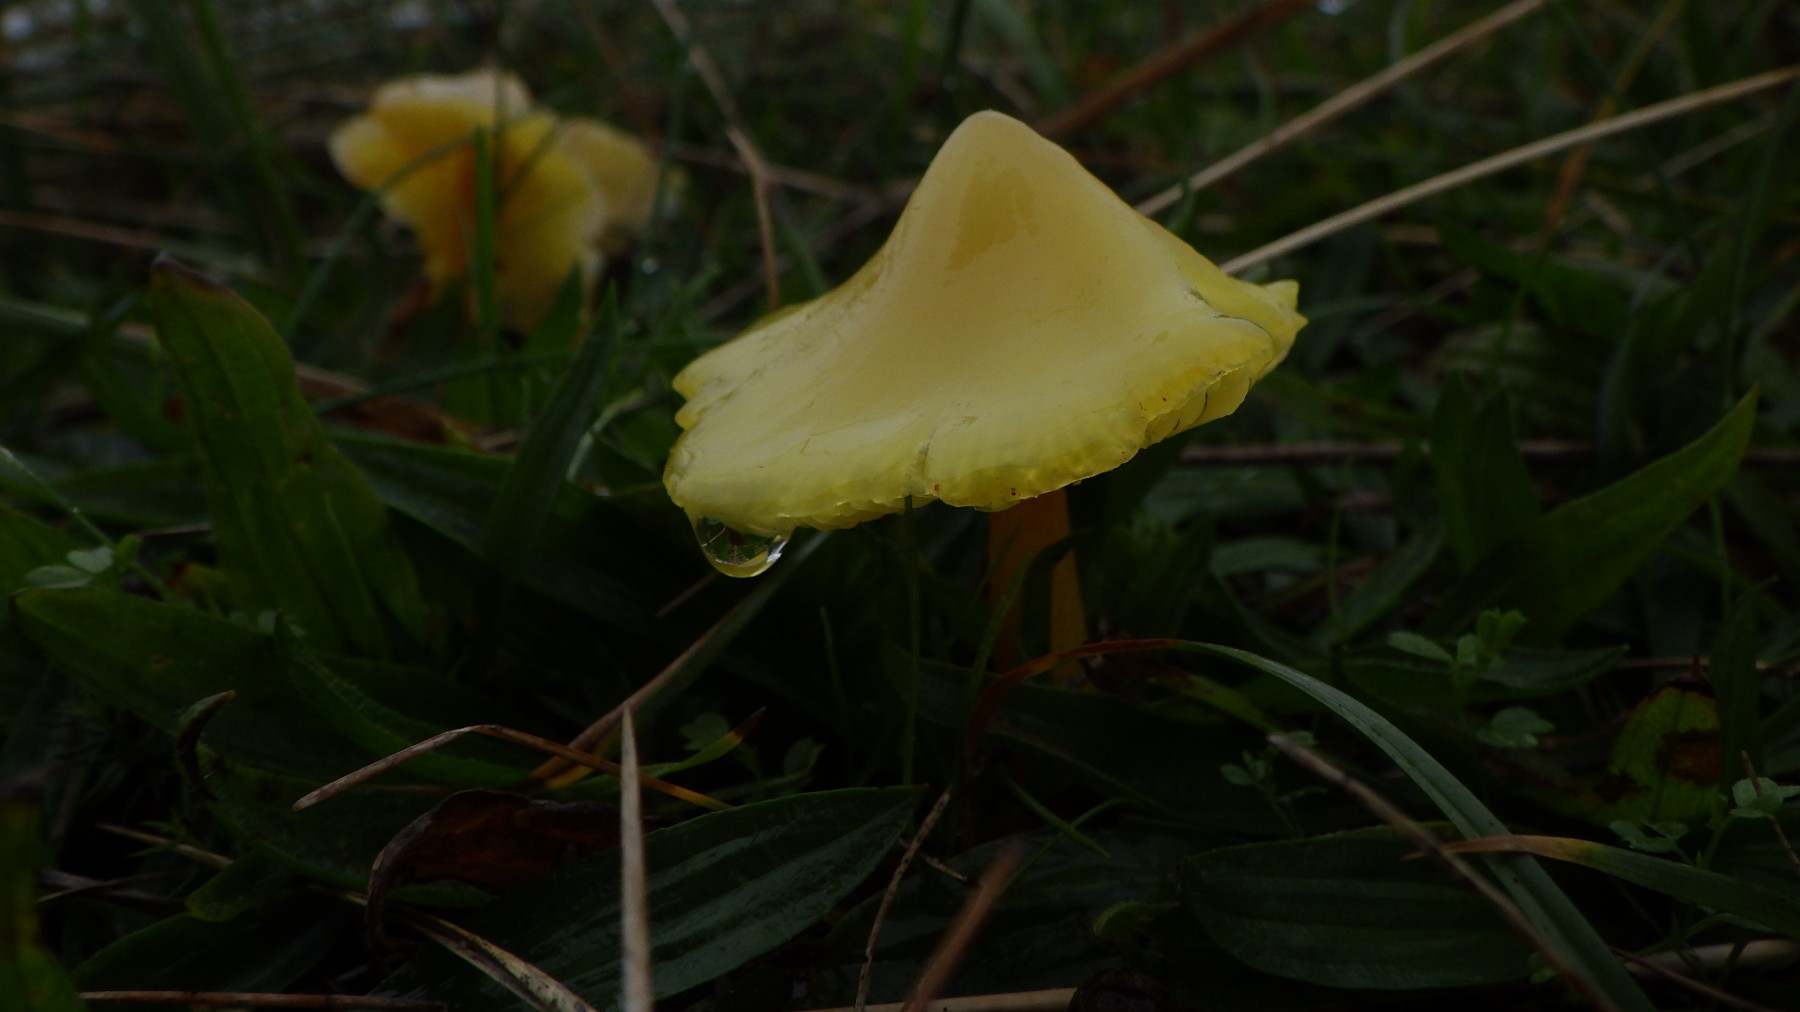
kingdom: Fungi
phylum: Basidiomycota
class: Agaricomycetes
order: Agaricales
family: Hygrophoraceae
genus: Hygrocybe
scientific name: Hygrocybe
